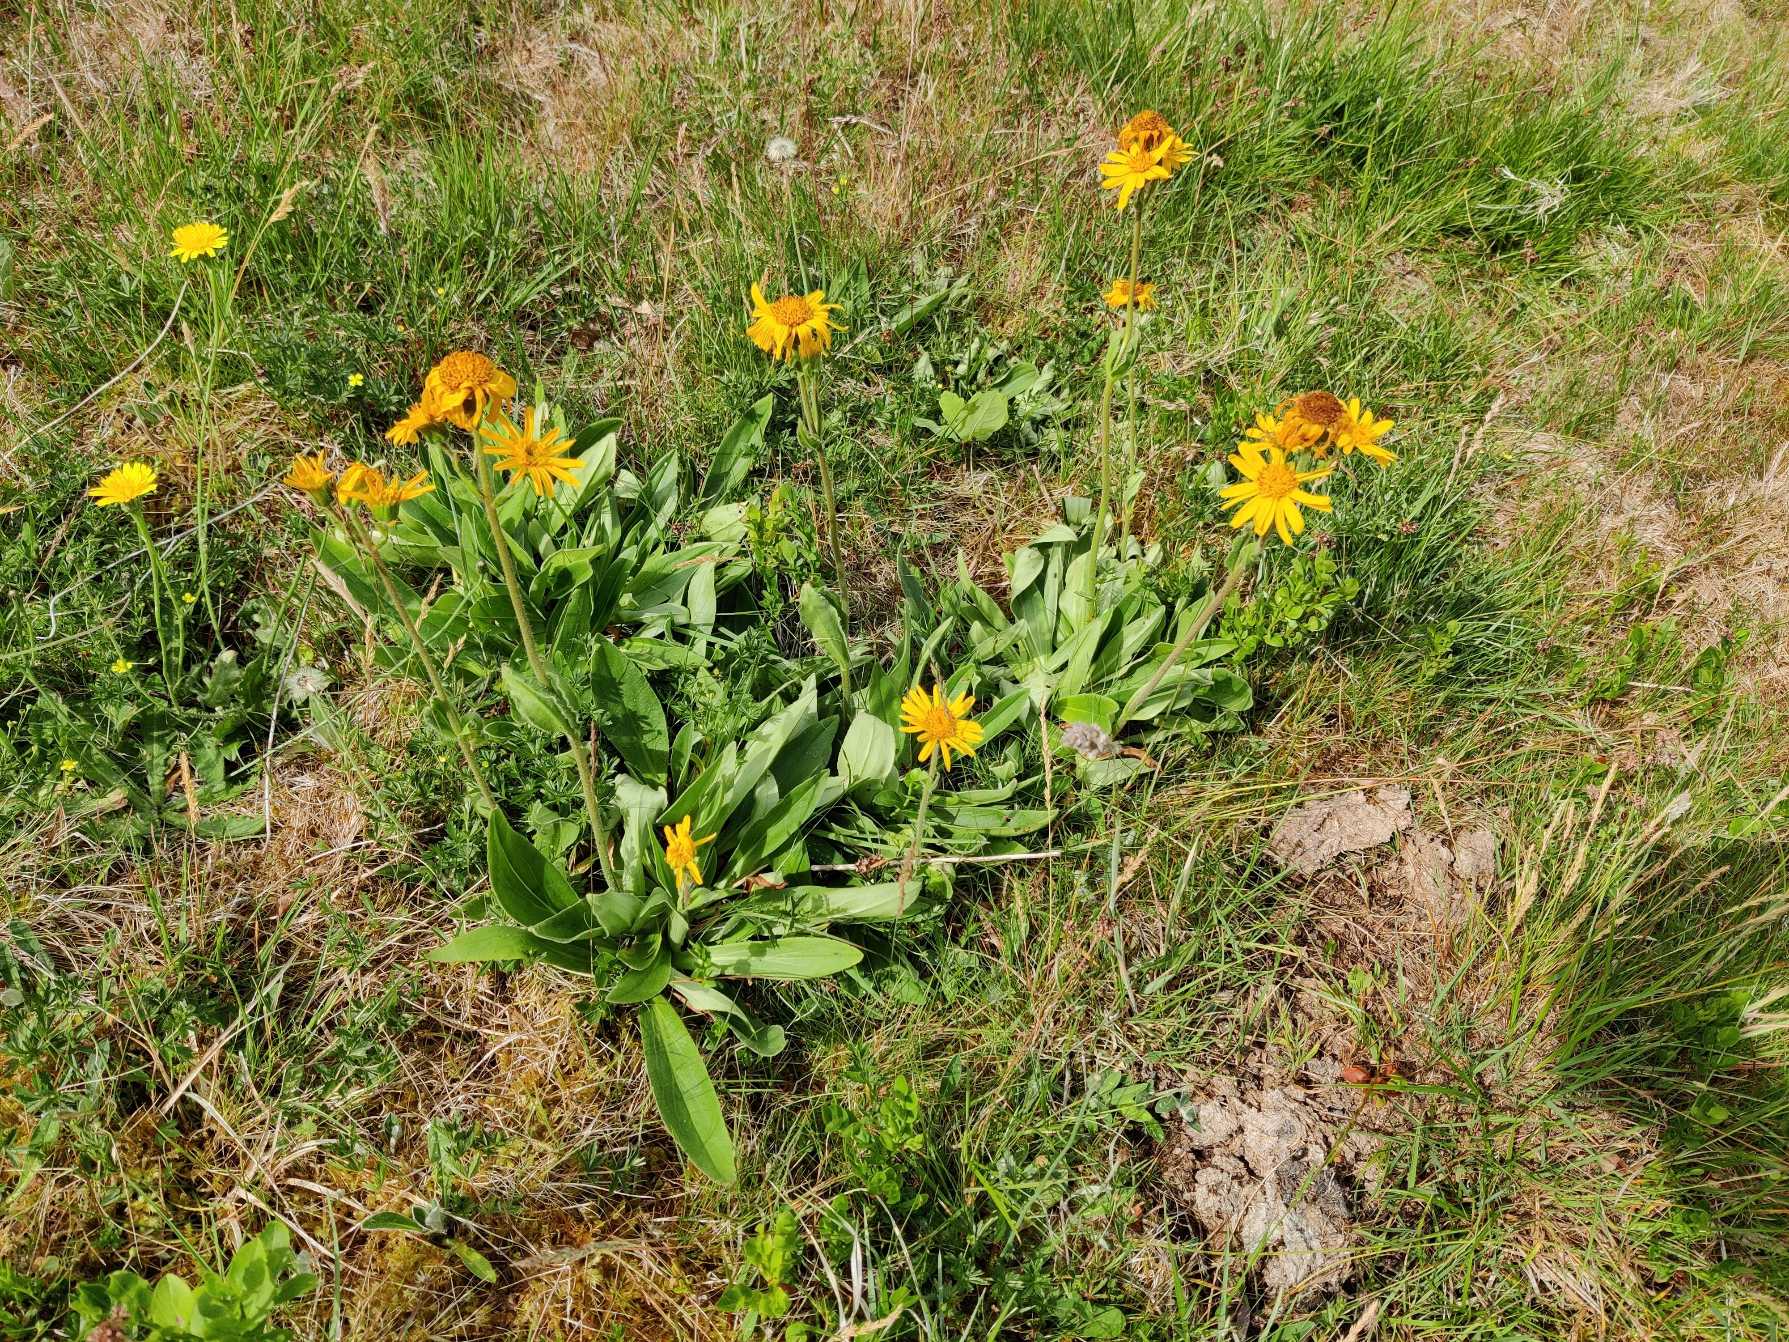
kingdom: Plantae
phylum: Tracheophyta
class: Magnoliopsida
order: Asterales
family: Asteraceae
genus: Arnica
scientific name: Arnica montana
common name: Guldblomme
